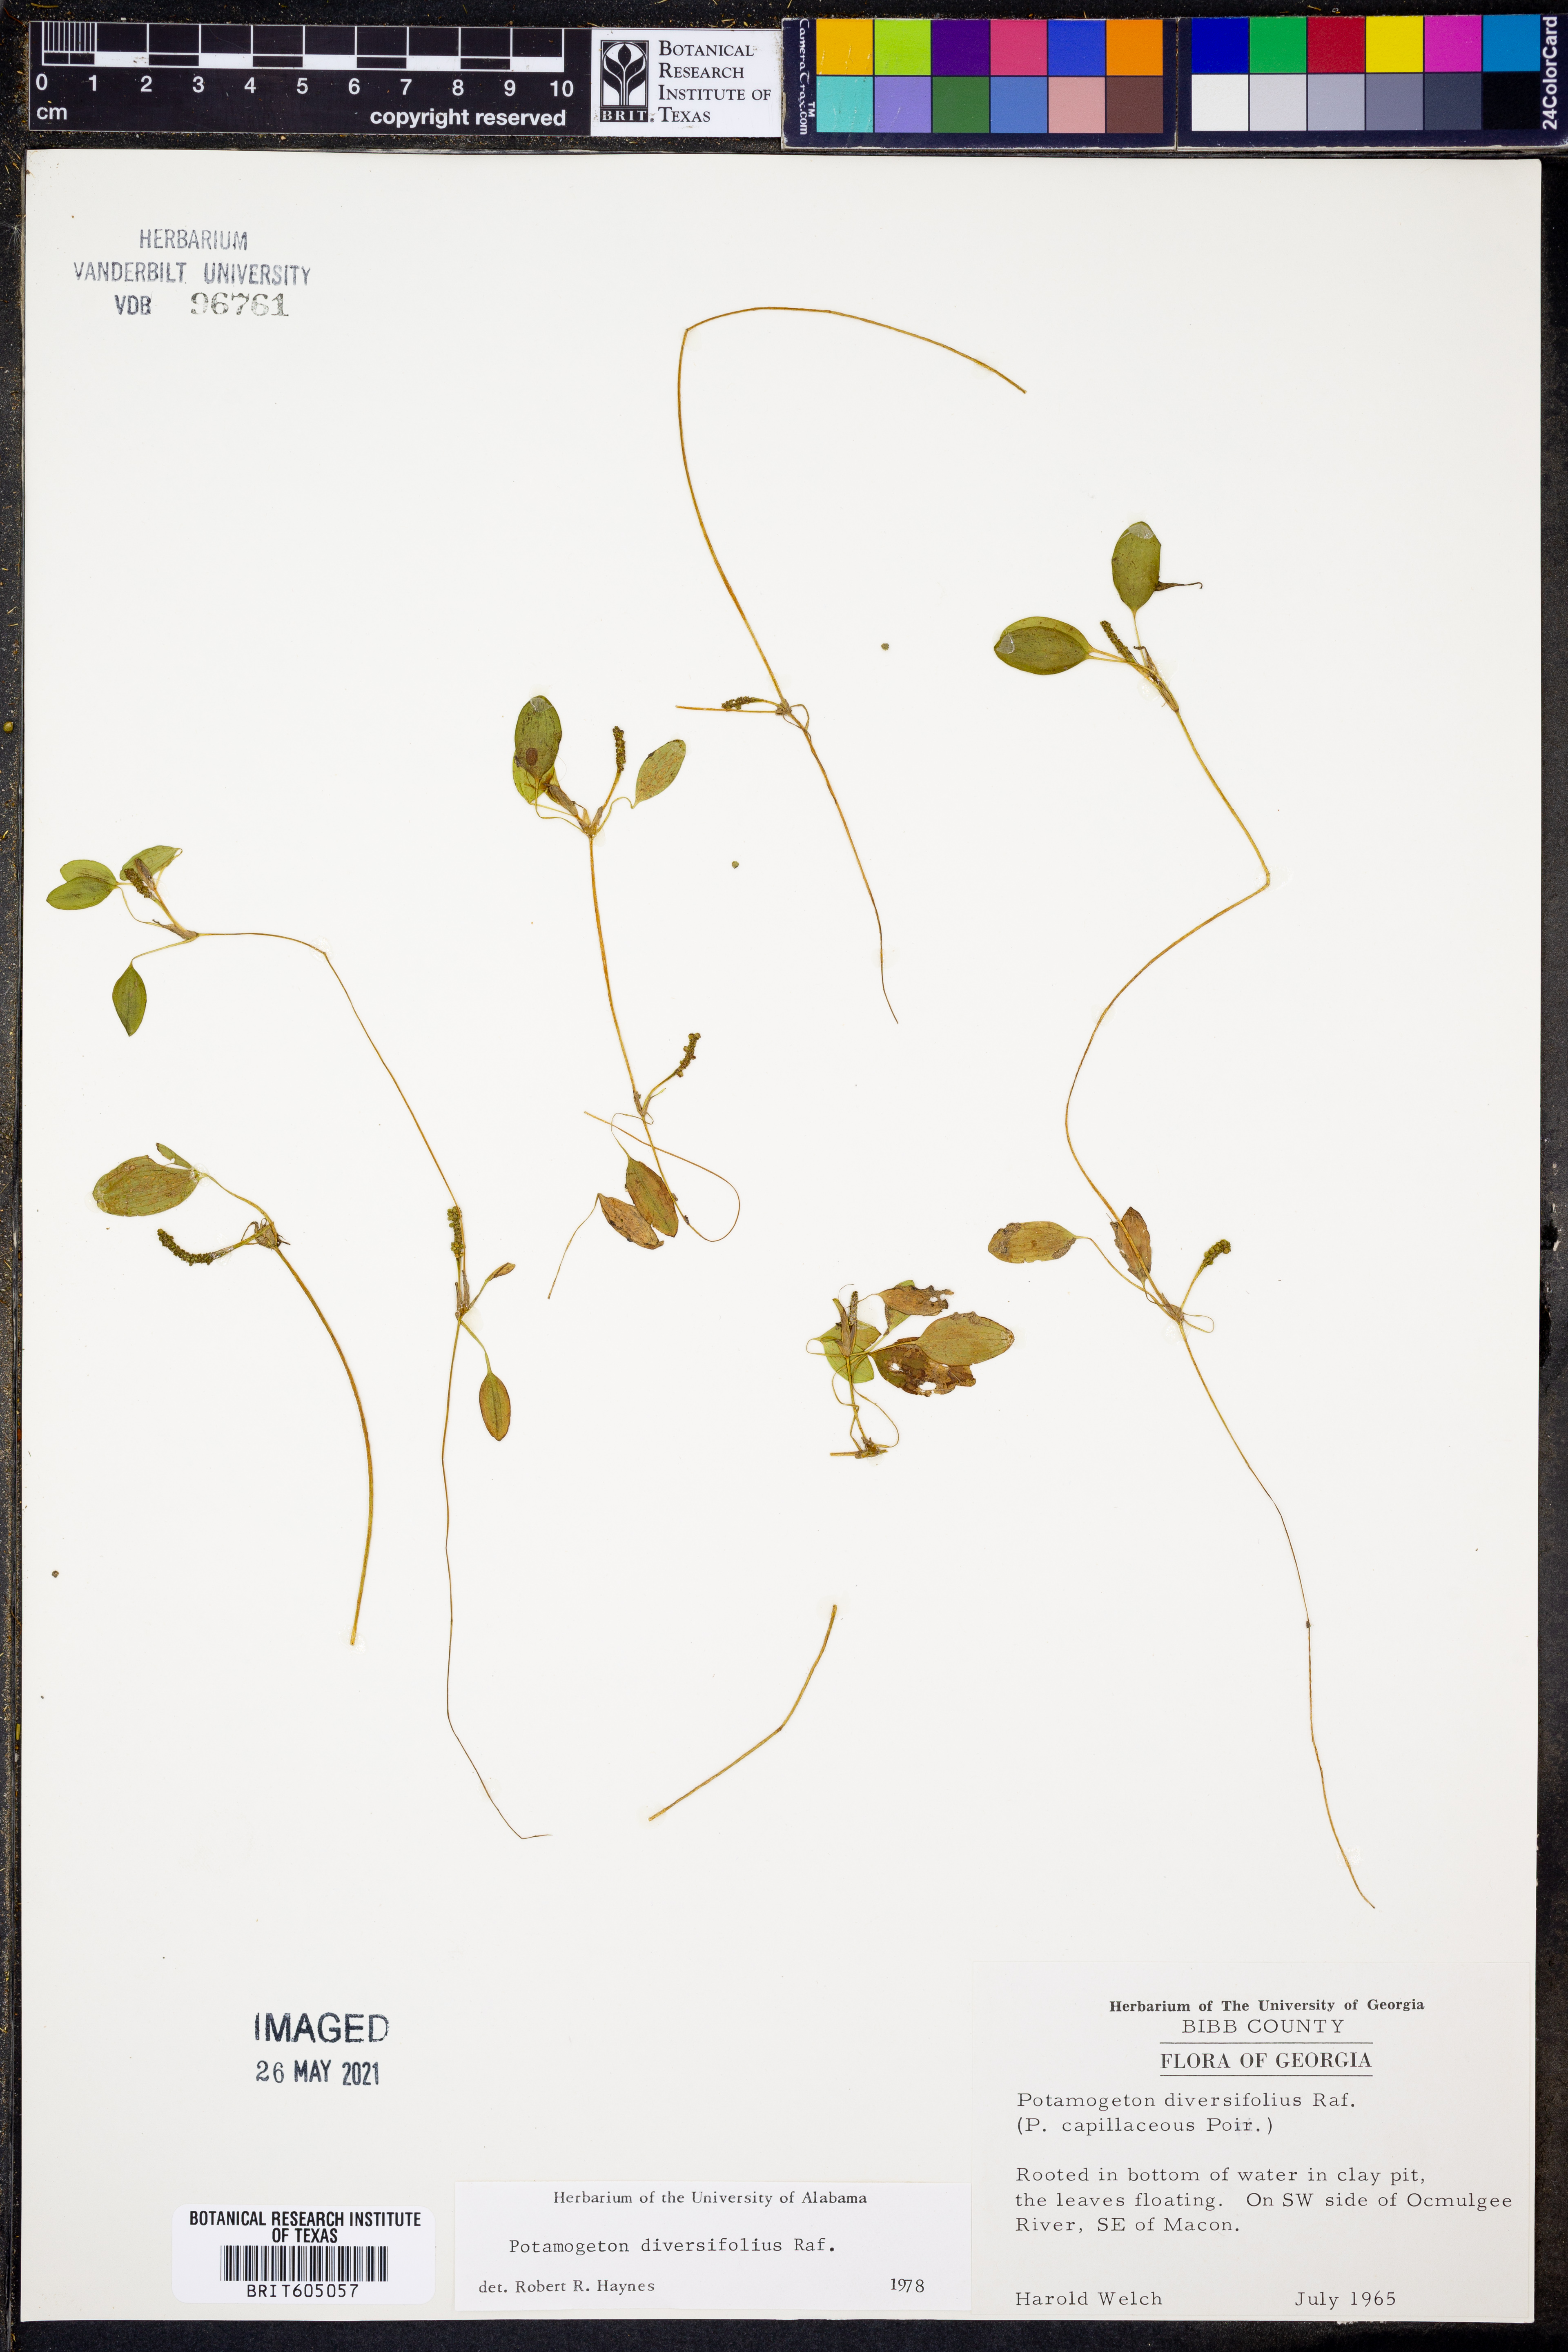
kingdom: Plantae
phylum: Tracheophyta
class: Liliopsida
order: Alismatales
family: Potamogetonaceae
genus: Potamogeton
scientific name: Potamogeton diversifolius
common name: Water-thread pondweed
